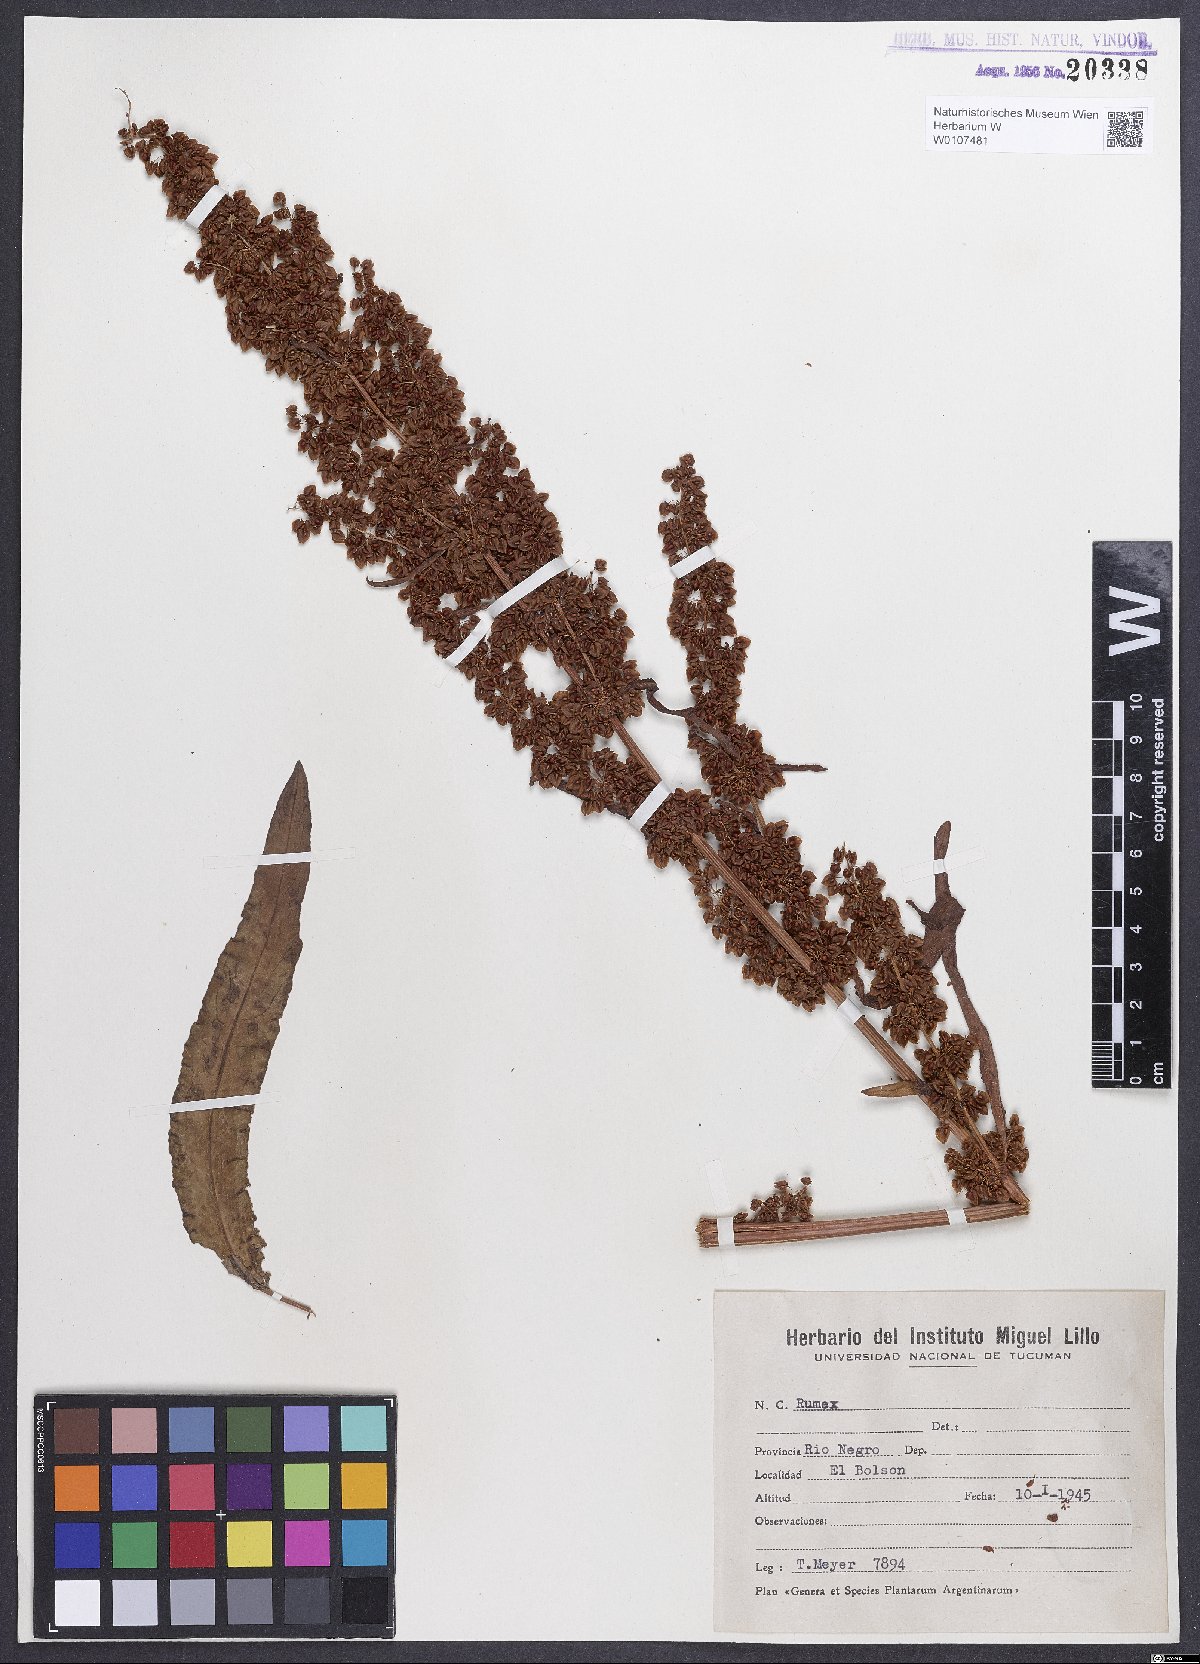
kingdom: Plantae
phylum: Tracheophyta
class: Magnoliopsida
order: Caryophyllales
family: Polygonaceae
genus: Rumex
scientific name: Rumex crispus
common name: Curled dock
